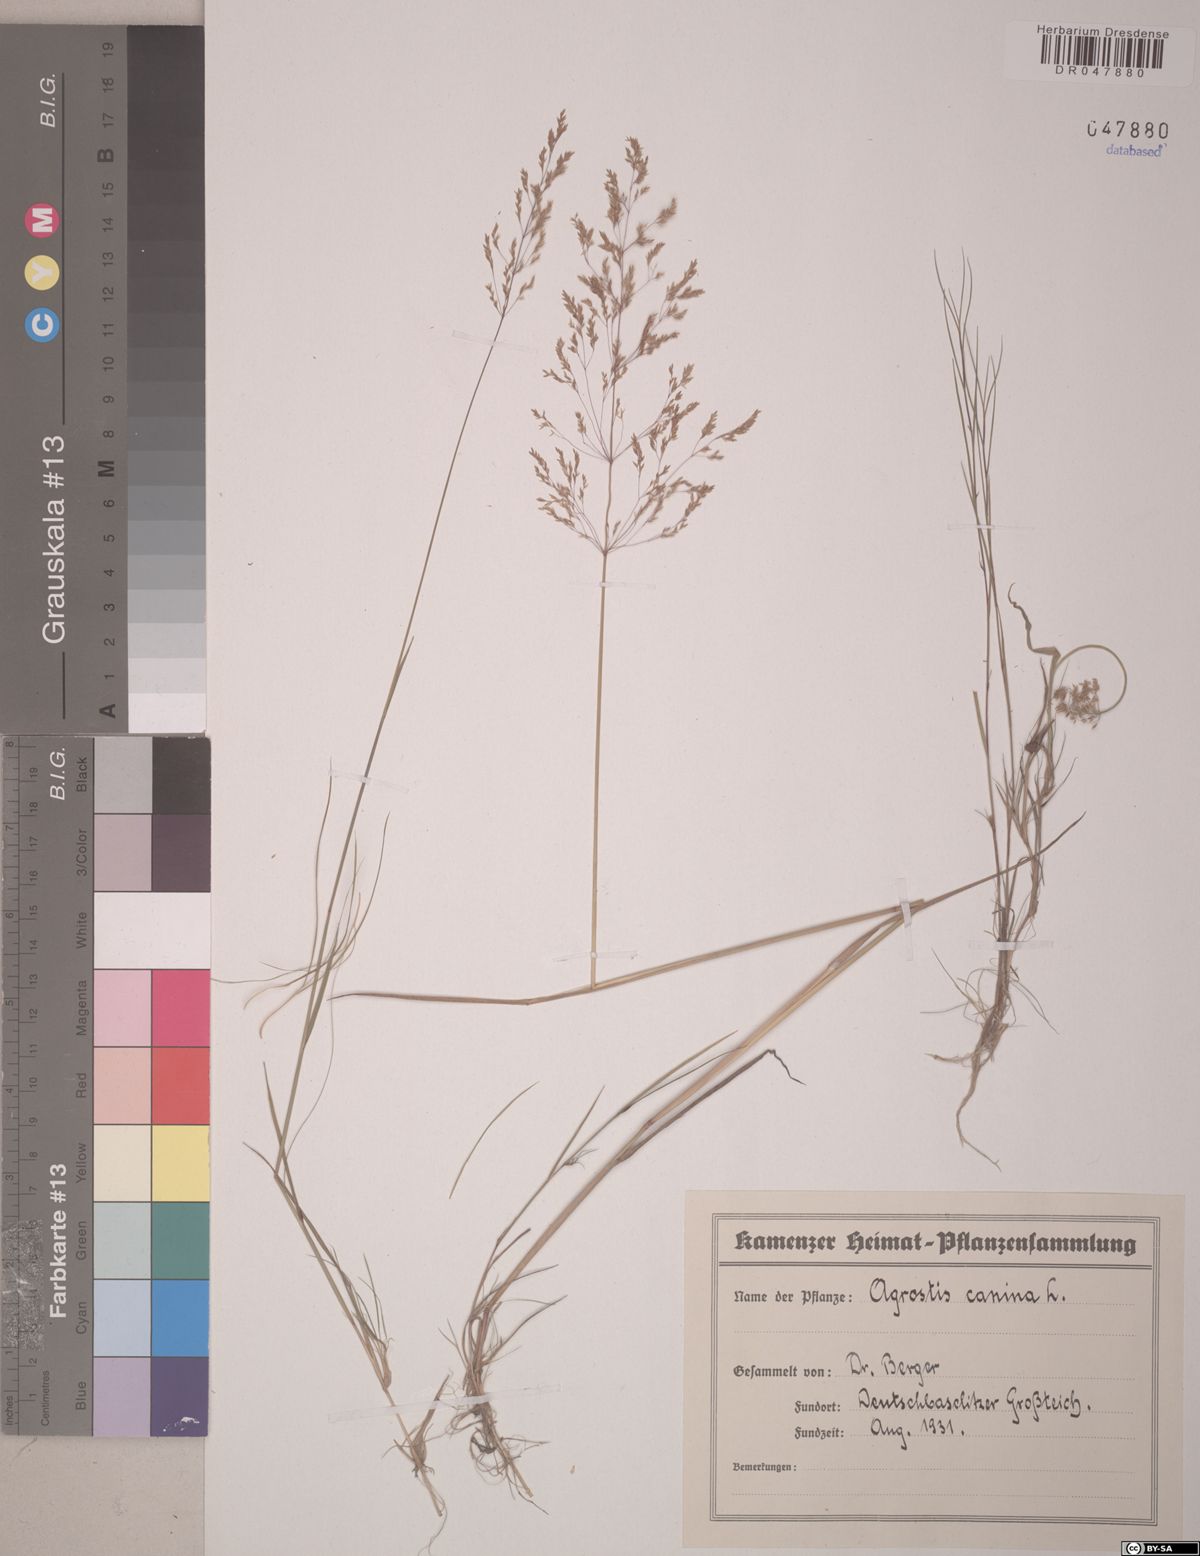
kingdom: Plantae
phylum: Tracheophyta
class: Liliopsida
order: Poales
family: Poaceae
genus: Agrostis
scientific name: Agrostis canina
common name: Velvet bent
